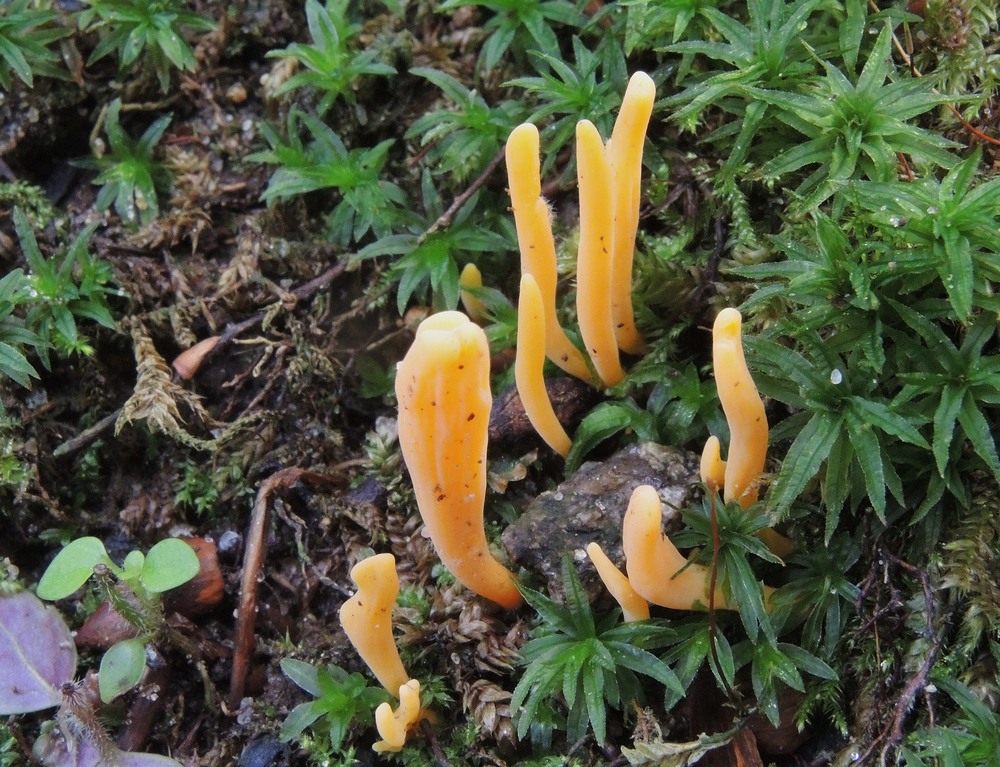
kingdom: Fungi
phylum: Basidiomycota
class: Agaricomycetes
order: Agaricales
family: Clavariaceae
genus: Clavulinopsis
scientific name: Clavulinopsis luteoalba
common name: abrikos-køllesvamp
